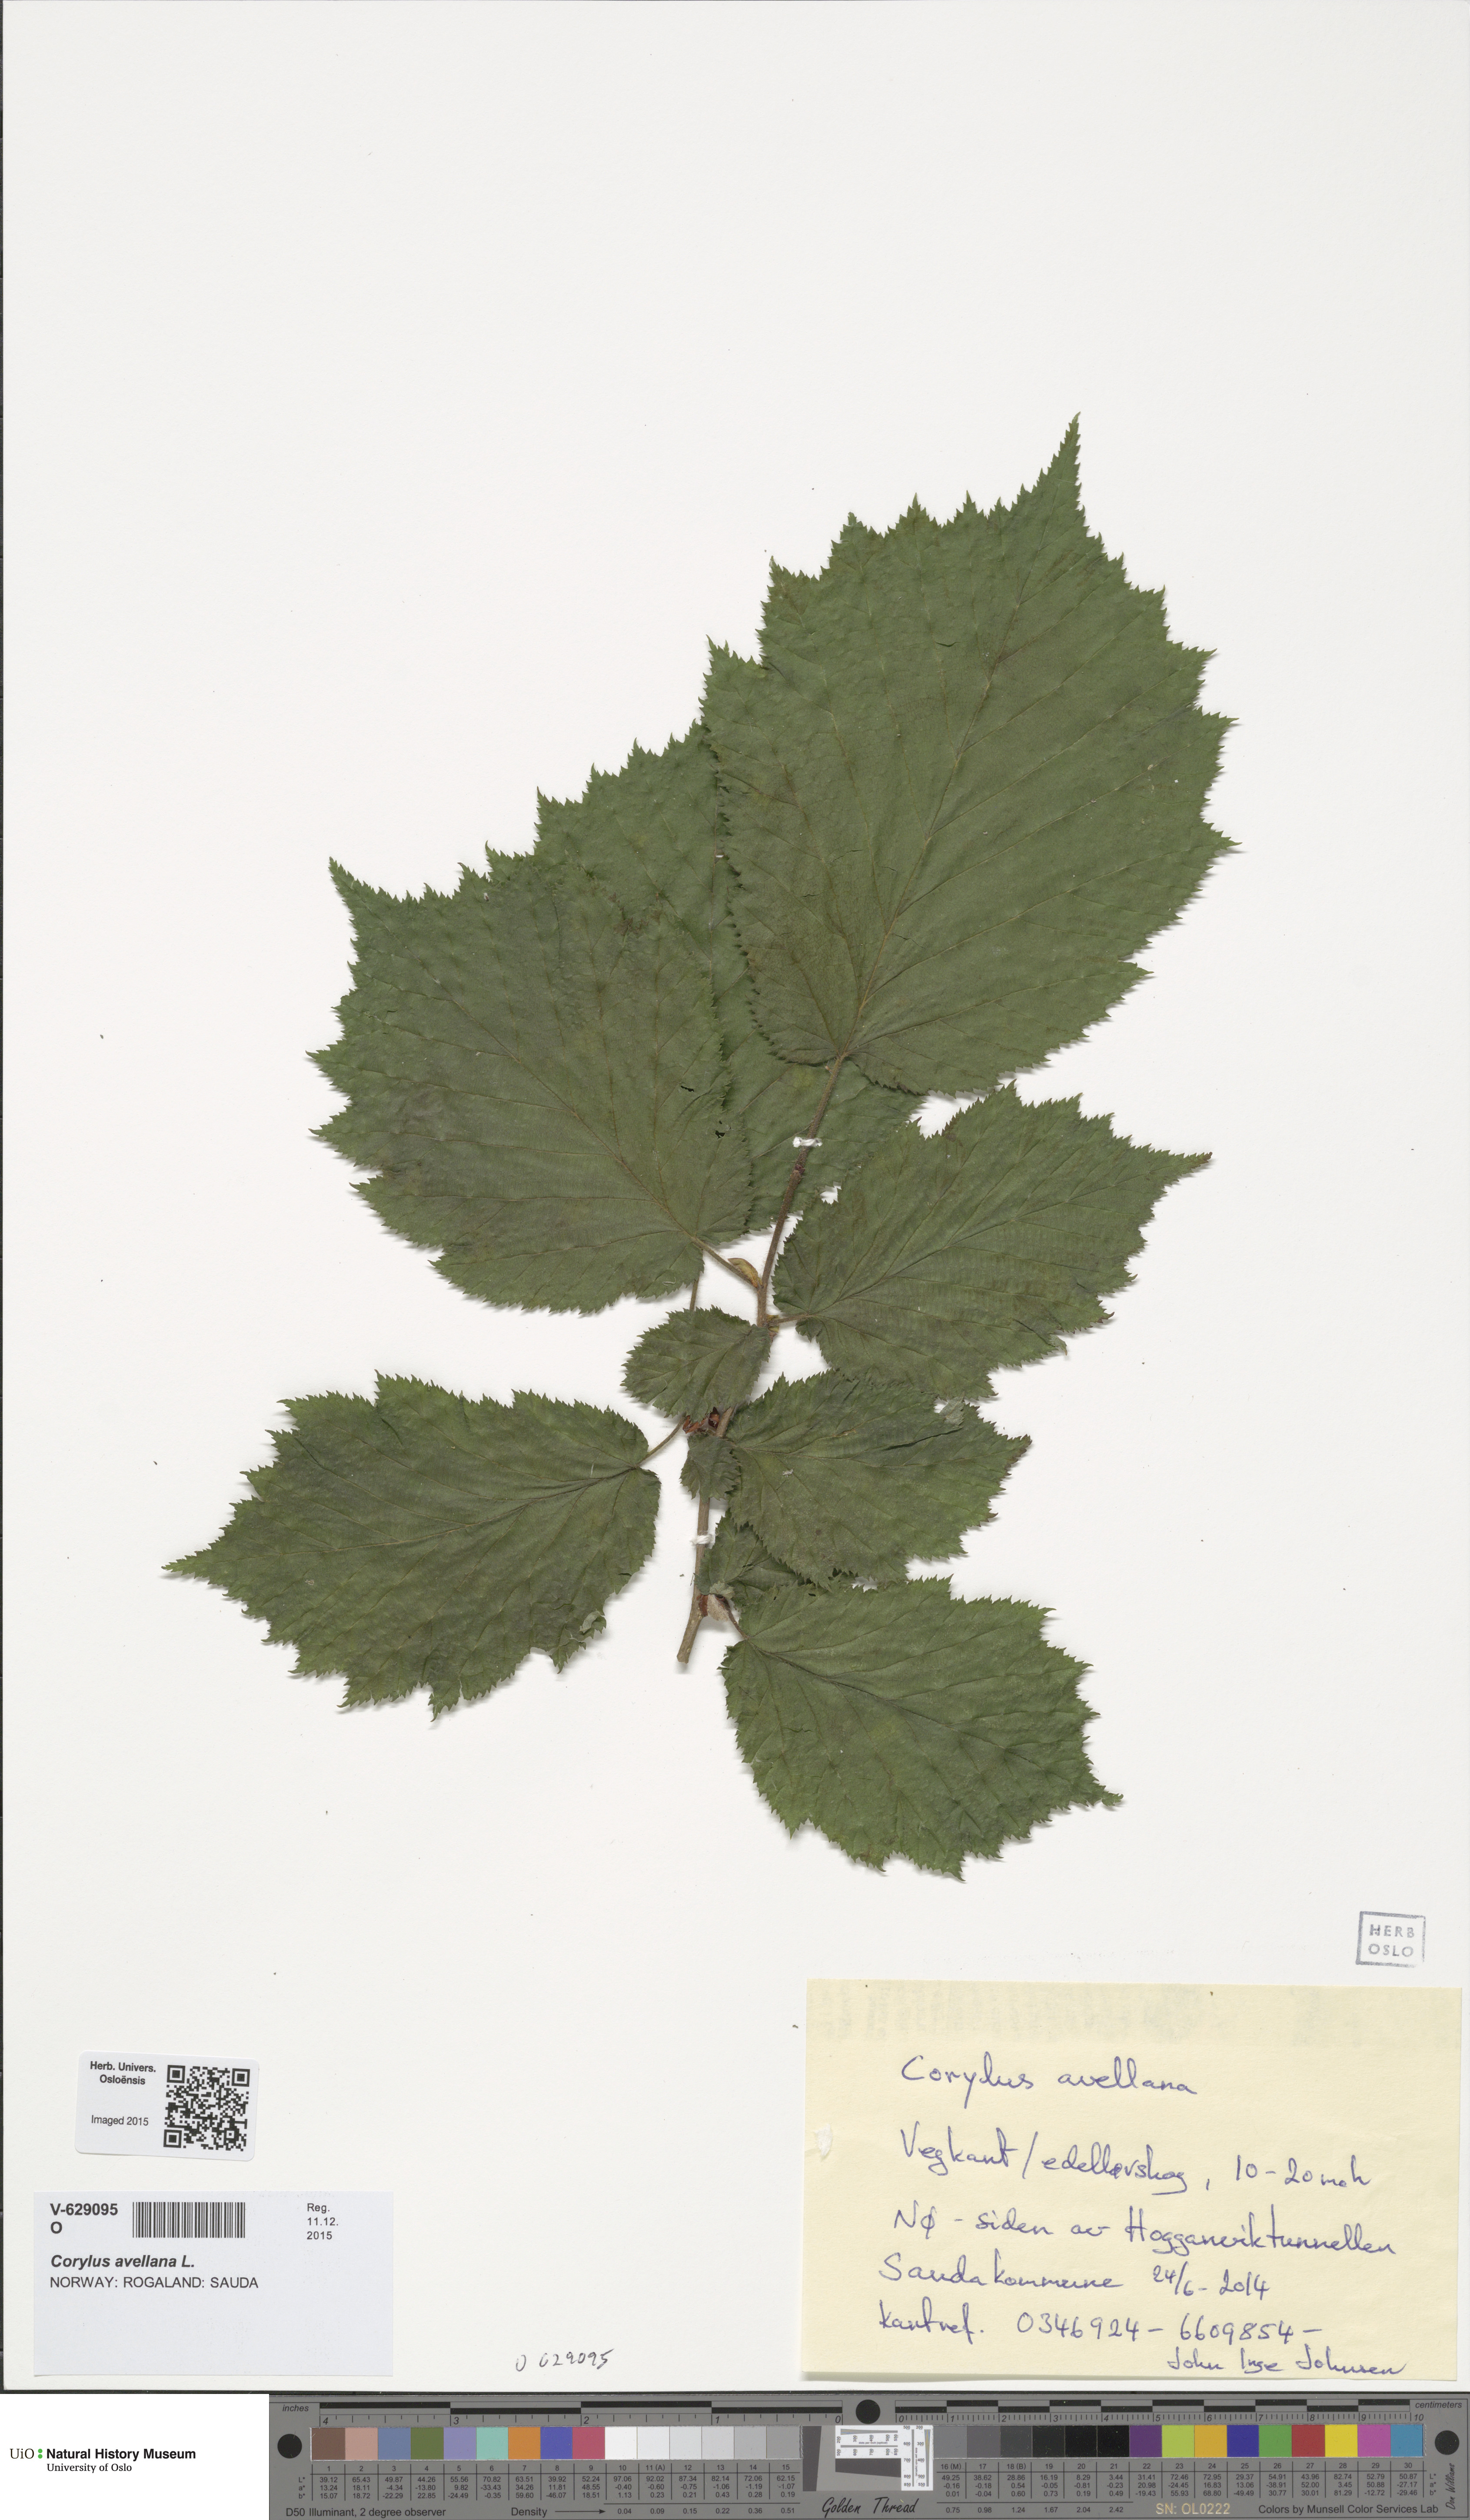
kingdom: Plantae
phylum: Tracheophyta
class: Magnoliopsida
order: Fagales
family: Betulaceae
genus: Corylus
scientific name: Corylus avellana
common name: European hazel
